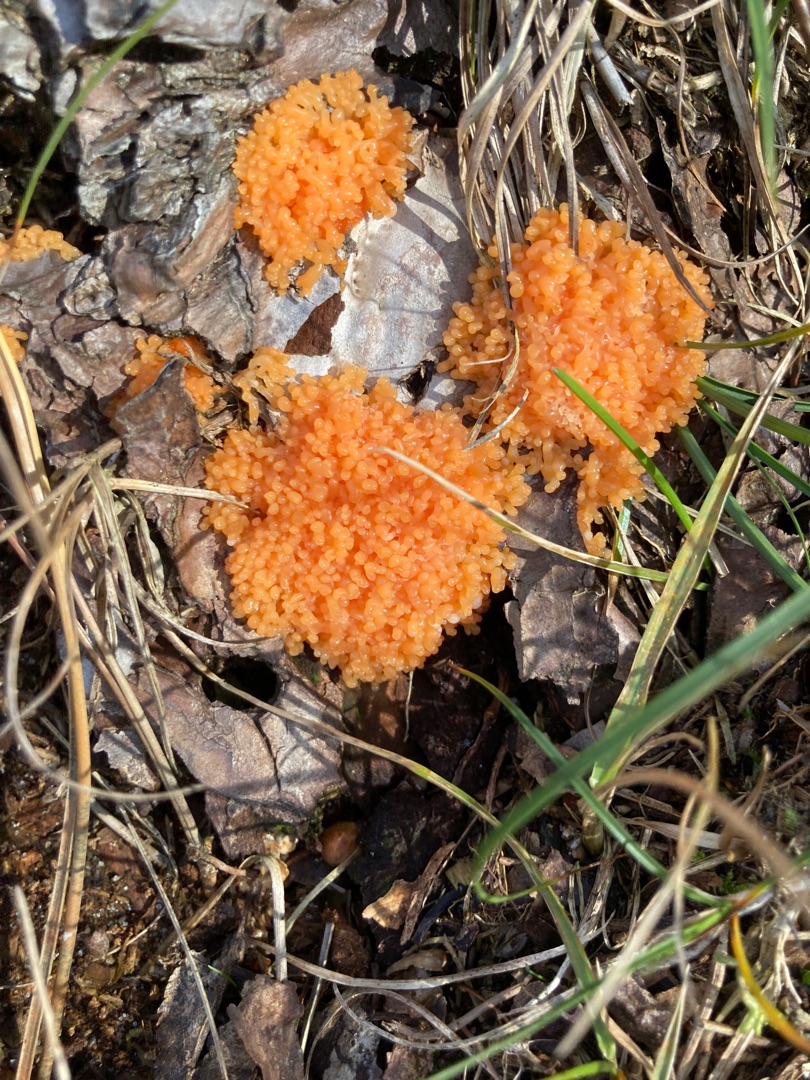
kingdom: Protozoa
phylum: Mycetozoa
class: Myxomycetes
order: Cribrariales
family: Tubiferaceae
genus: Tubifera
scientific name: Tubifera ferruginosa
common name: Kanel-støvrør
